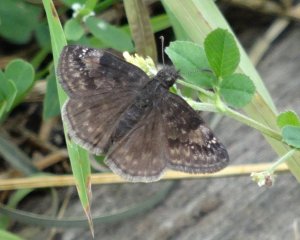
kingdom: Animalia
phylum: Arthropoda
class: Insecta
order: Lepidoptera
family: Hesperiidae
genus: Gesta
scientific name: Gesta
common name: Wild Indigo Duskywing
